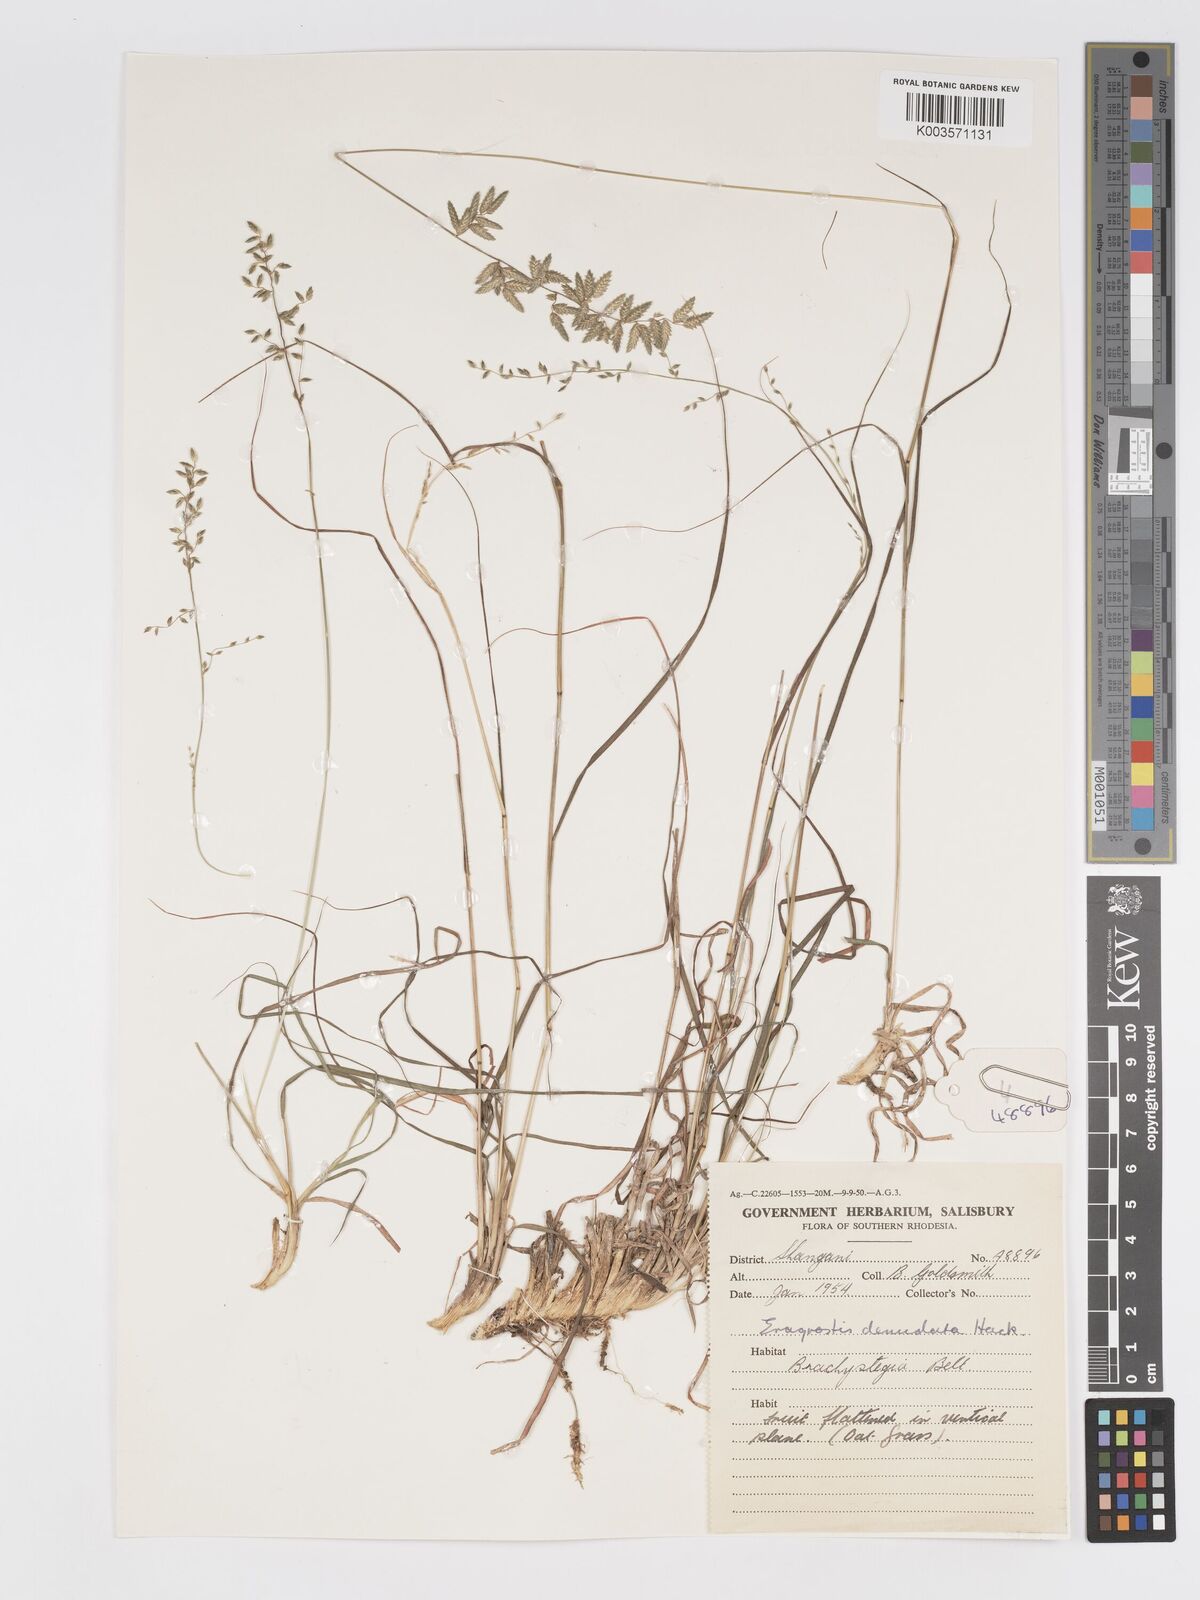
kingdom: Plantae
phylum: Tracheophyta
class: Liliopsida
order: Poales
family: Poaceae
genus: Eragrostis
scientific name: Eragrostis nindensis
